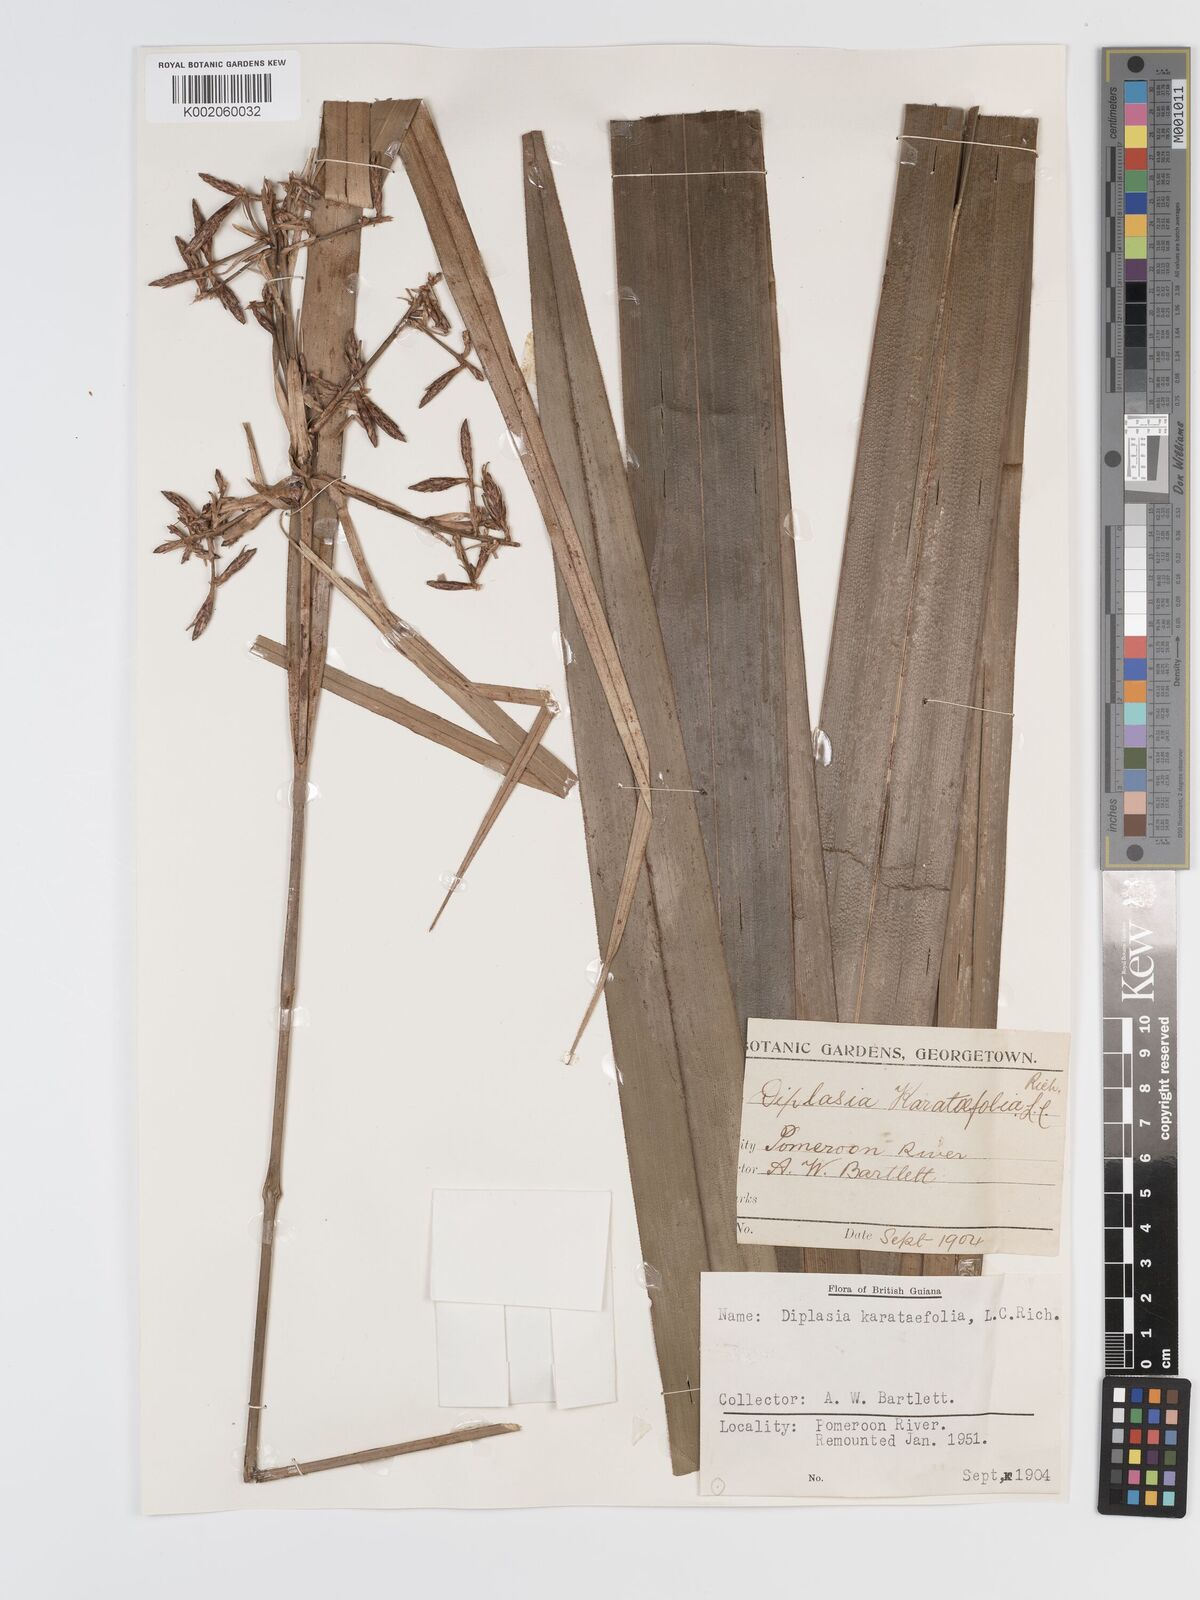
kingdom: Plantae
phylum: Tracheophyta
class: Liliopsida
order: Poales
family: Cyperaceae
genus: Diplasia
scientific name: Diplasia karatifolia
